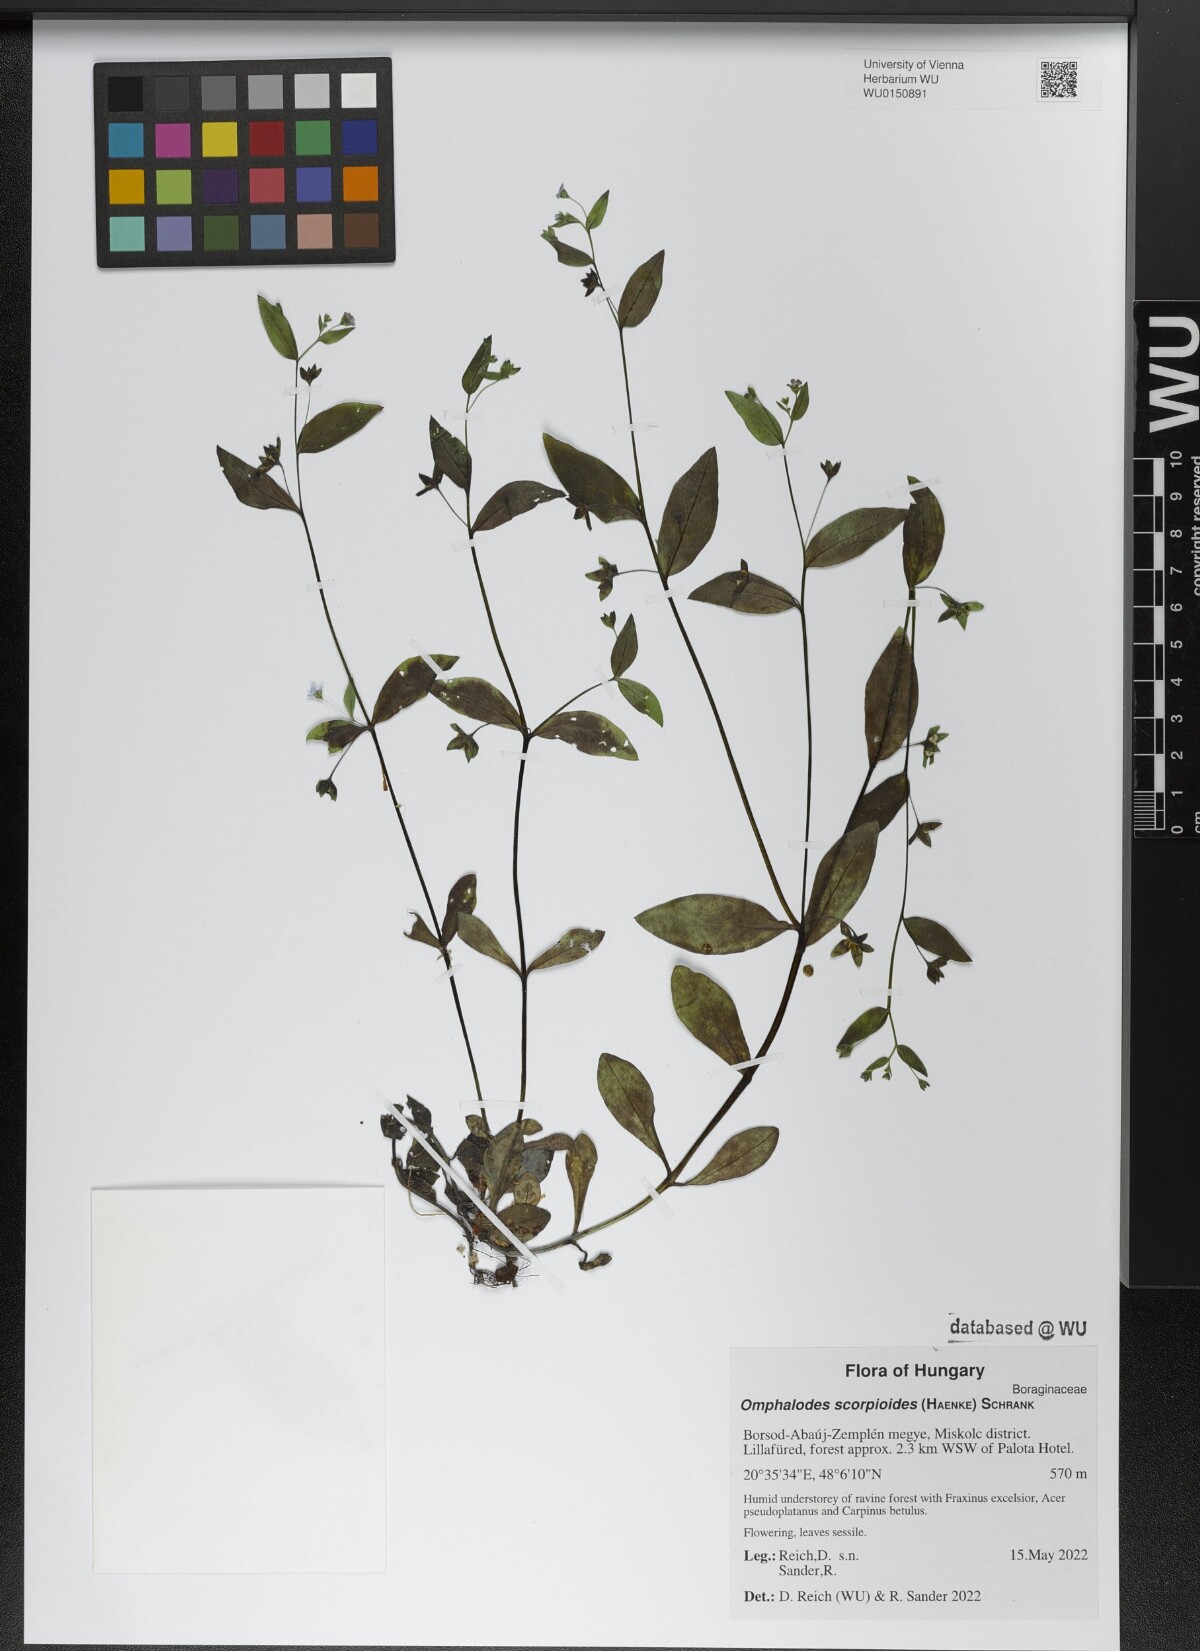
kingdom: Plantae
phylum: Tracheophyta
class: Magnoliopsida
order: Boraginales
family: Boraginaceae
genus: Memoremea
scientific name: Memoremea scorpioides
